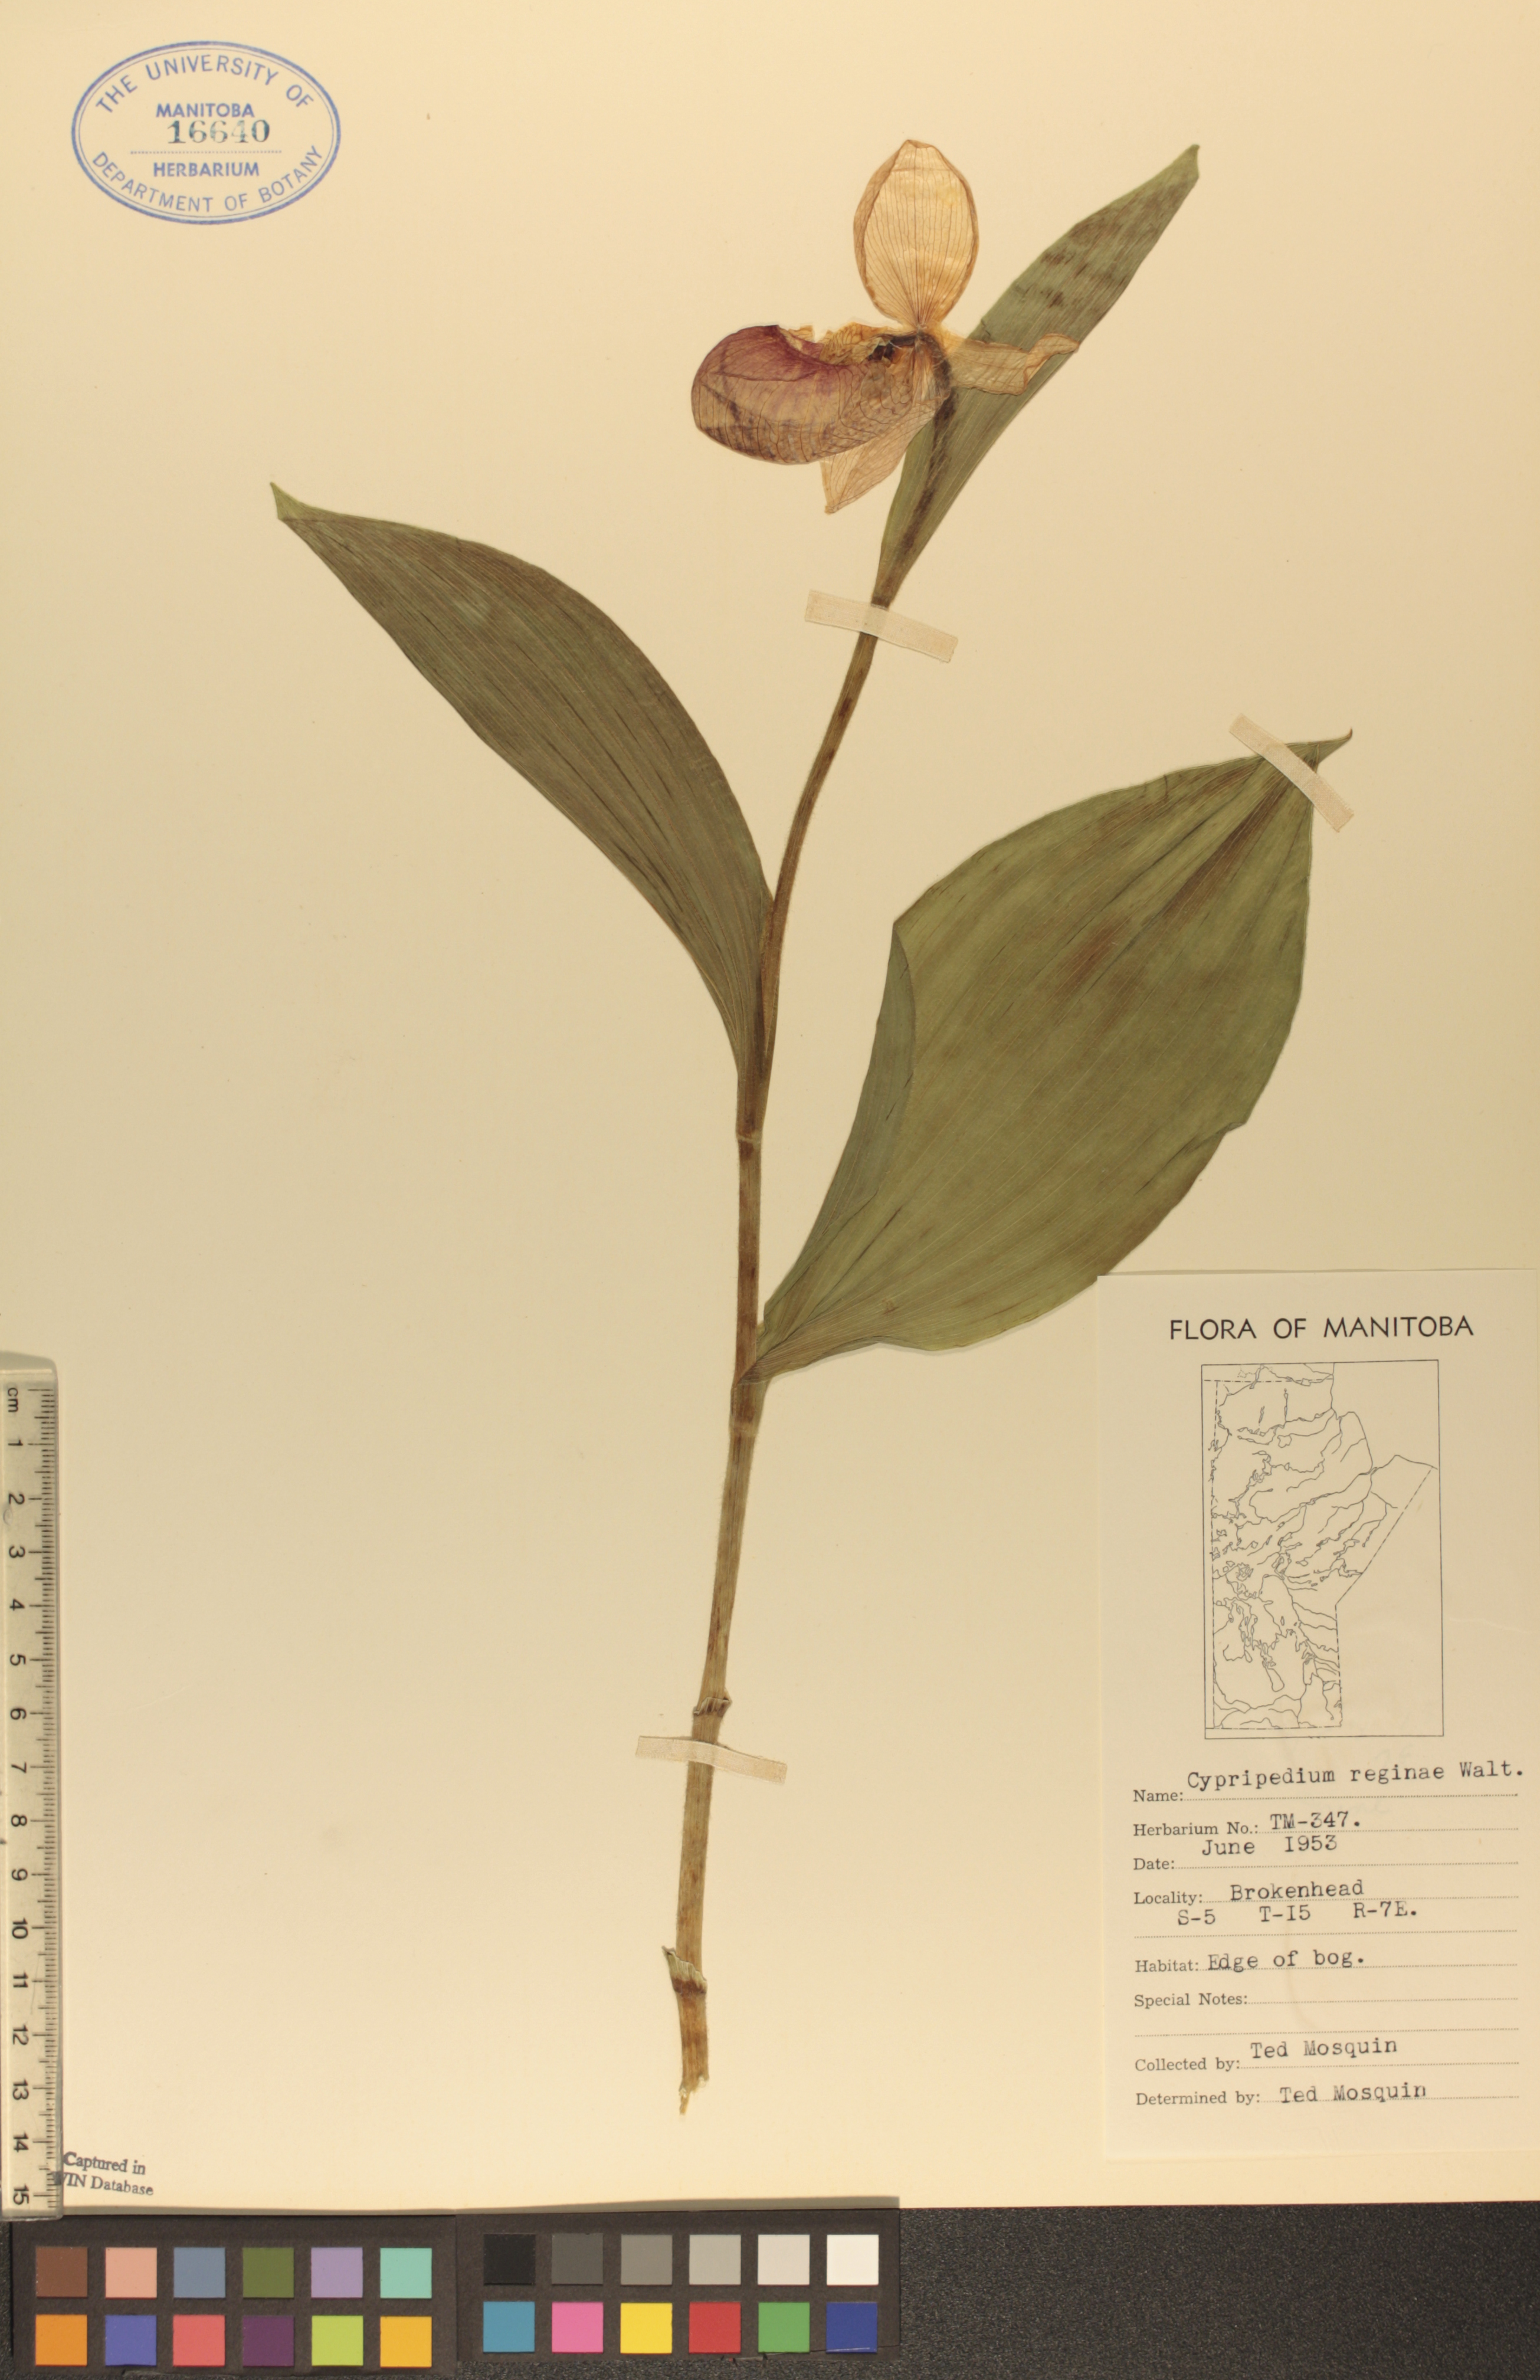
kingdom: Plantae
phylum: Tracheophyta
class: Liliopsida
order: Asparagales
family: Orchidaceae
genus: Cypripedium
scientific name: Cypripedium reginae
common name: Queen lady's-slipper
